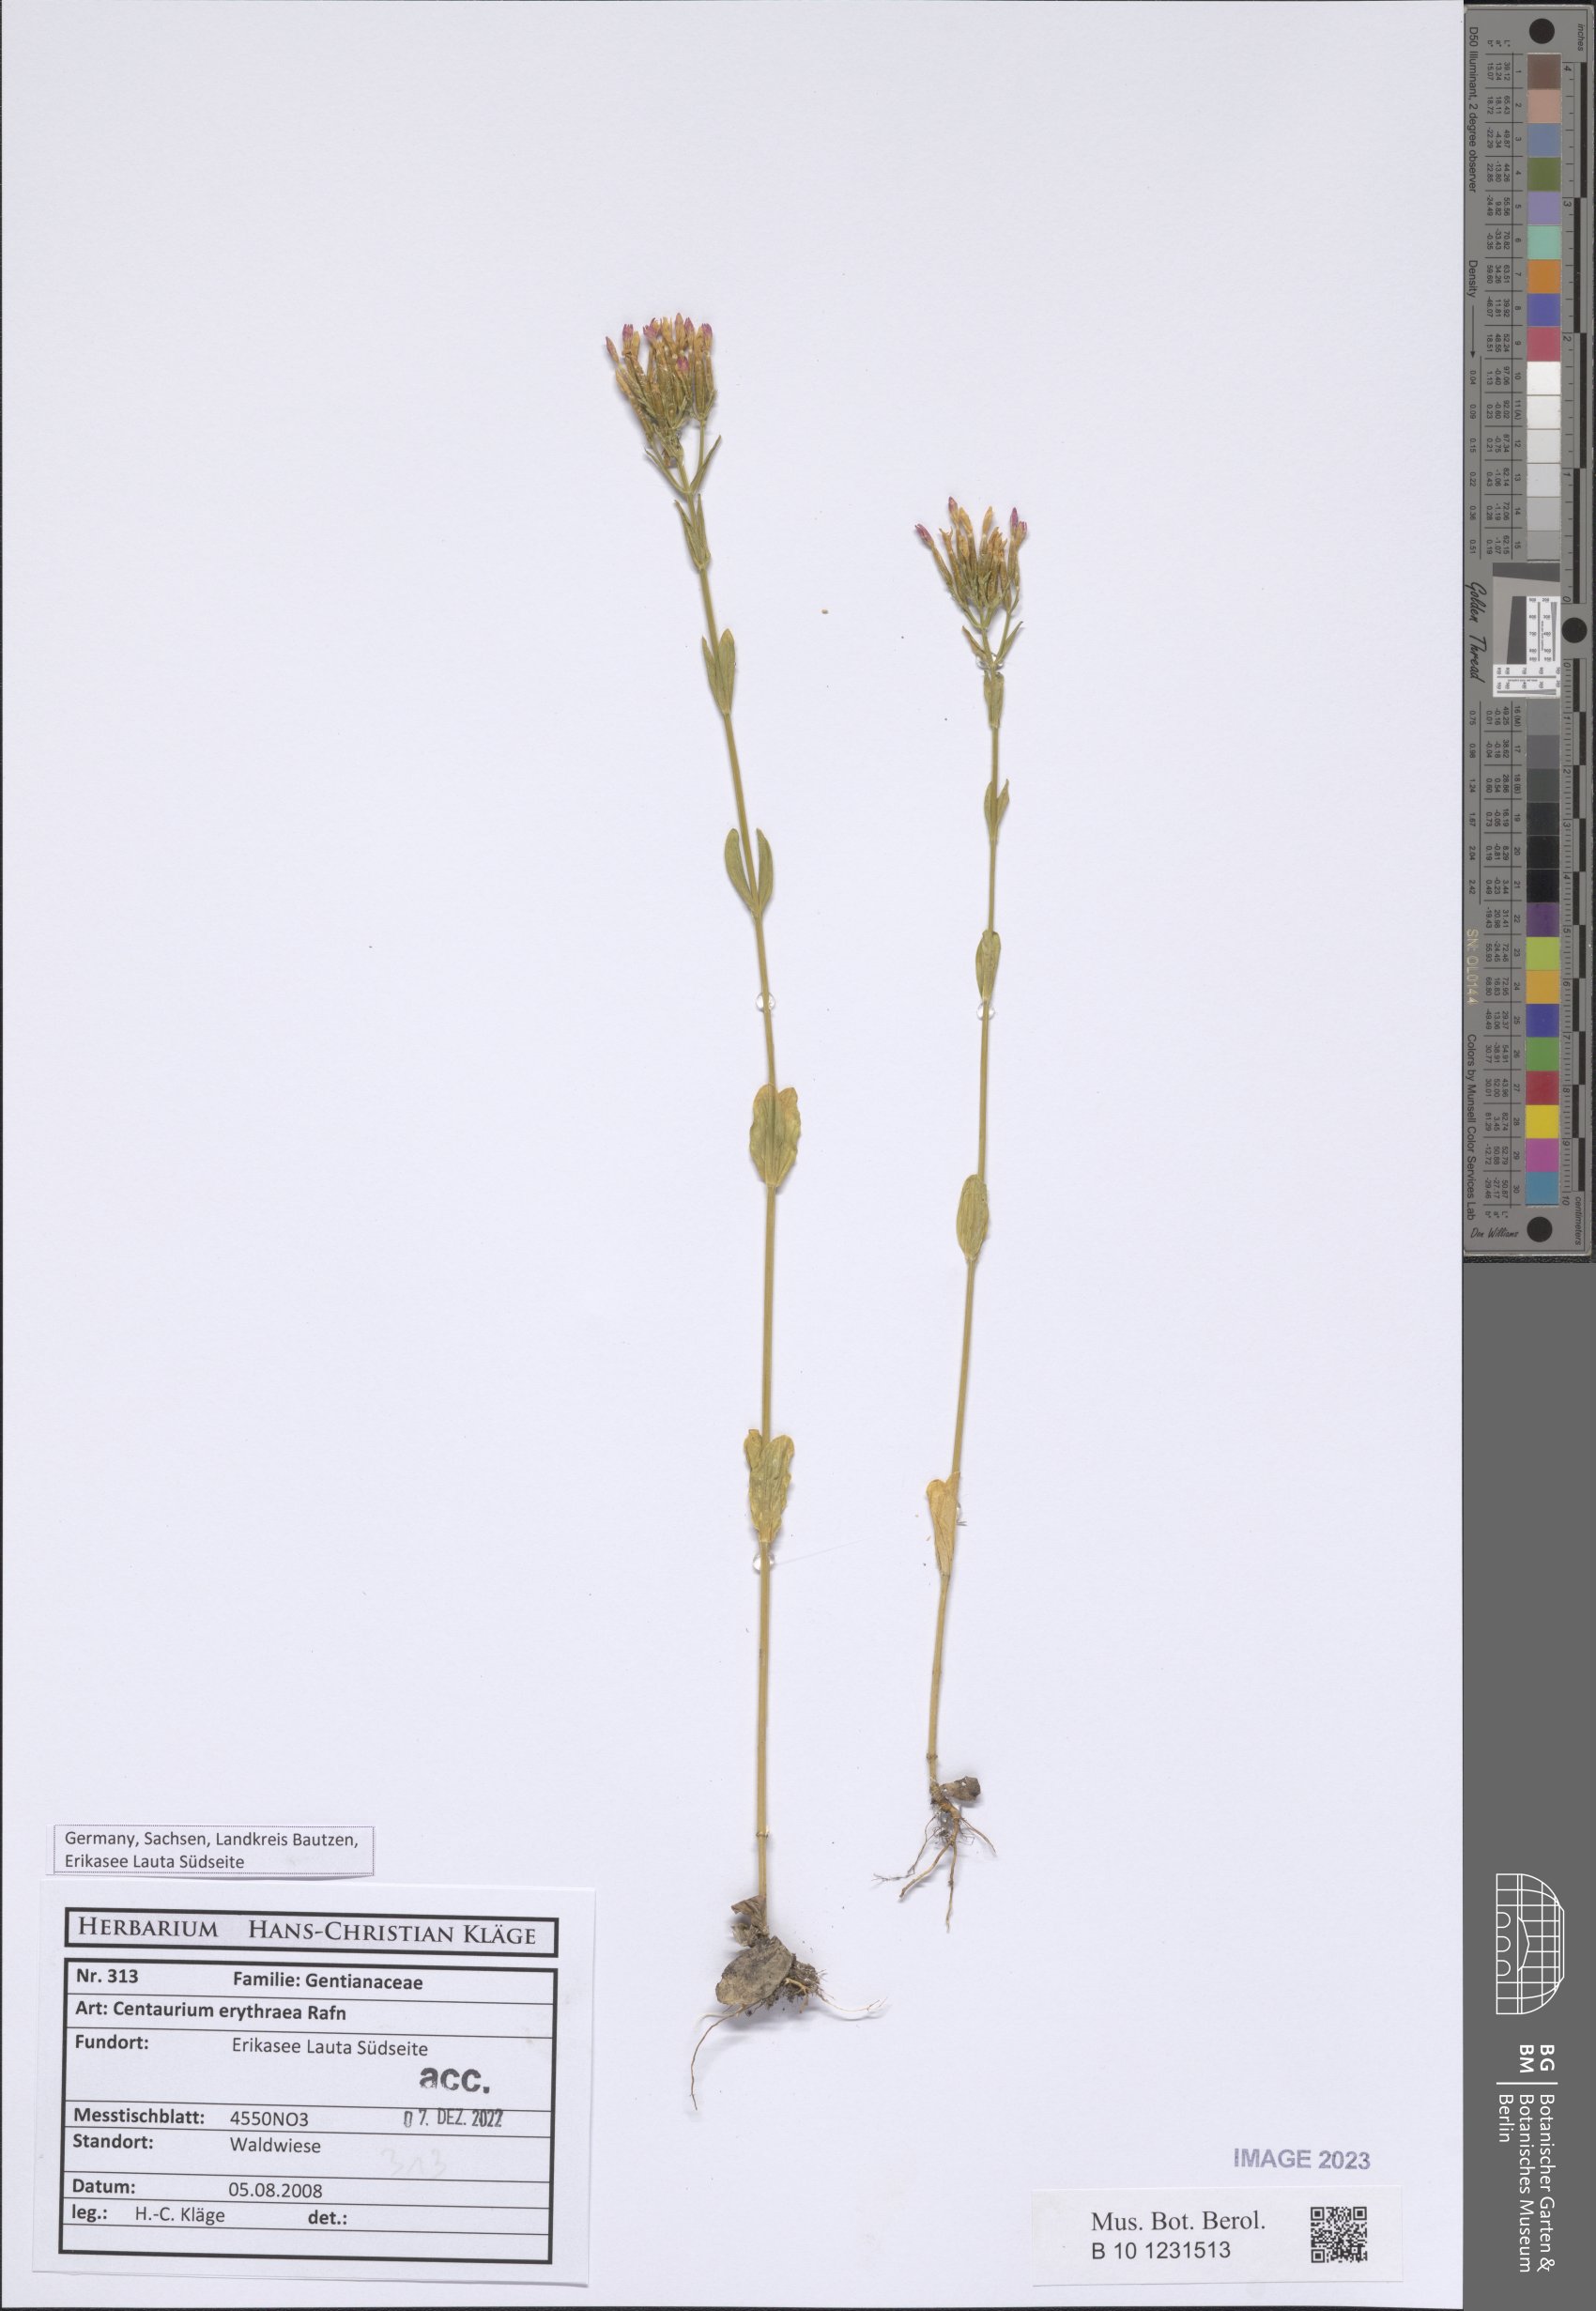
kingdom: Plantae
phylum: Tracheophyta
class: Magnoliopsida
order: Gentianales
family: Gentianaceae
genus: Centaurium
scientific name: Centaurium erythraea
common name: Common centaury
